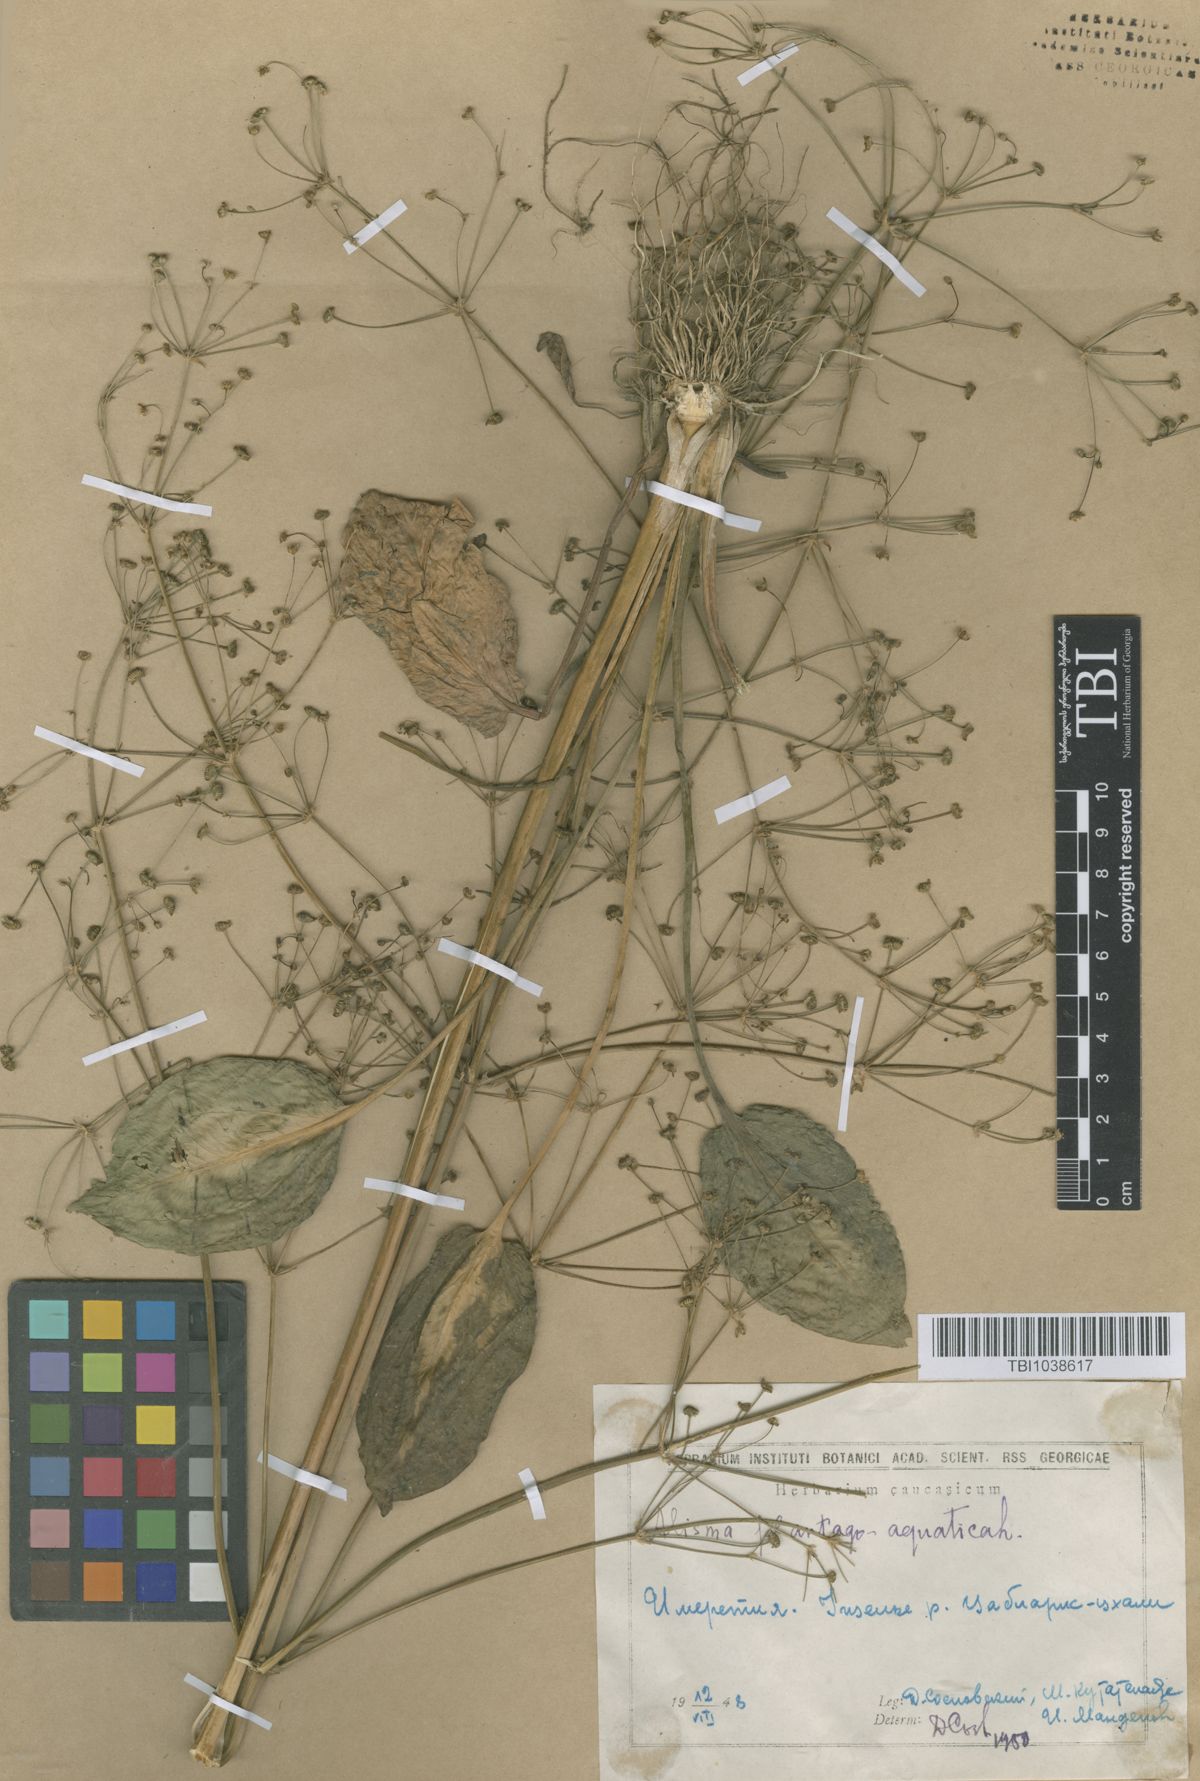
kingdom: Plantae
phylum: Tracheophyta
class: Liliopsida
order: Alismatales
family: Alismataceae
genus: Alisma
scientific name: Alisma plantago-aquatica
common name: Water-plantain
